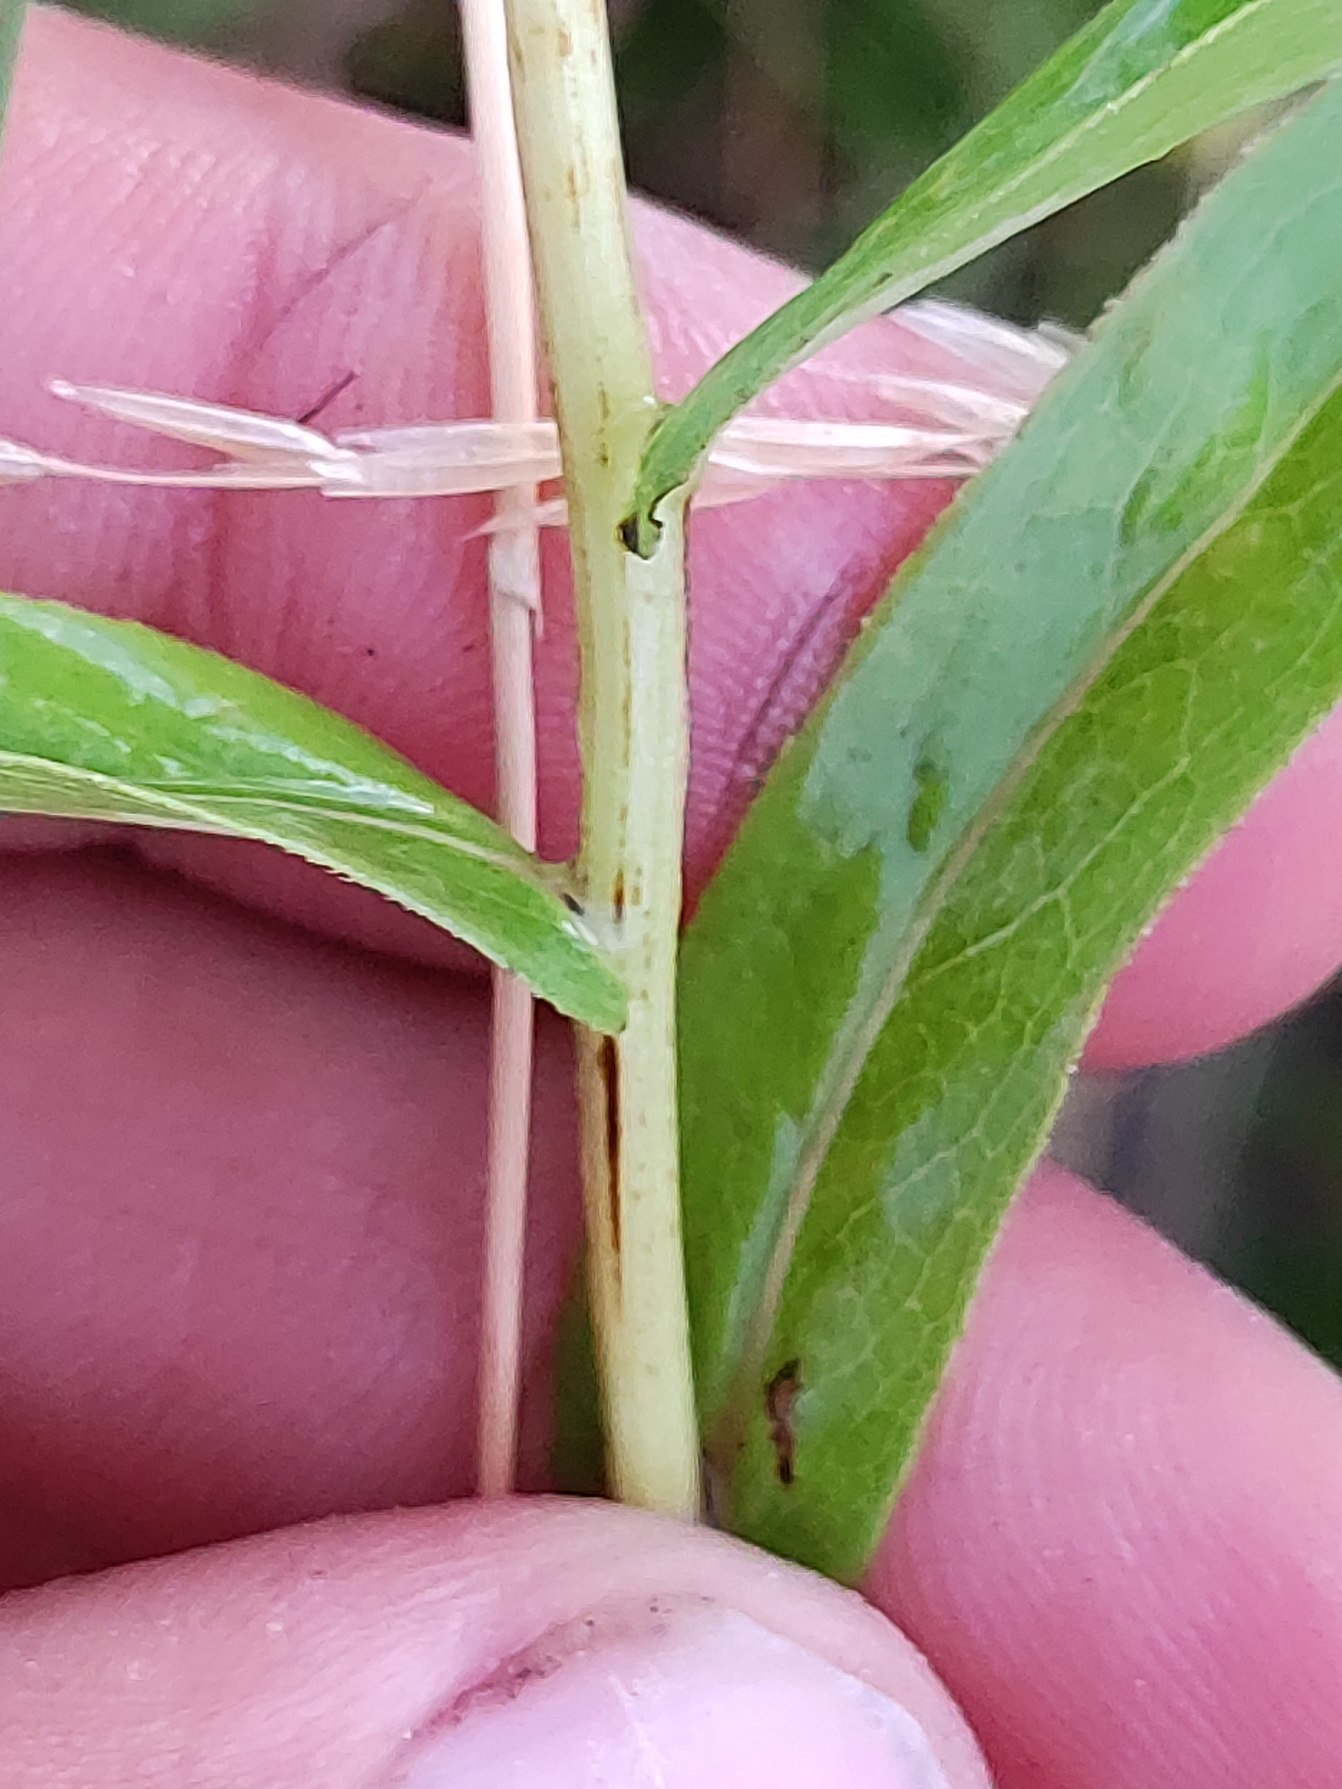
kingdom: Plantae
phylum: Tracheophyta
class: Magnoliopsida
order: Asterales
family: Asteraceae
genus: Pentanema
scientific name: Pentanema salicinum
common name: Pile-alant
